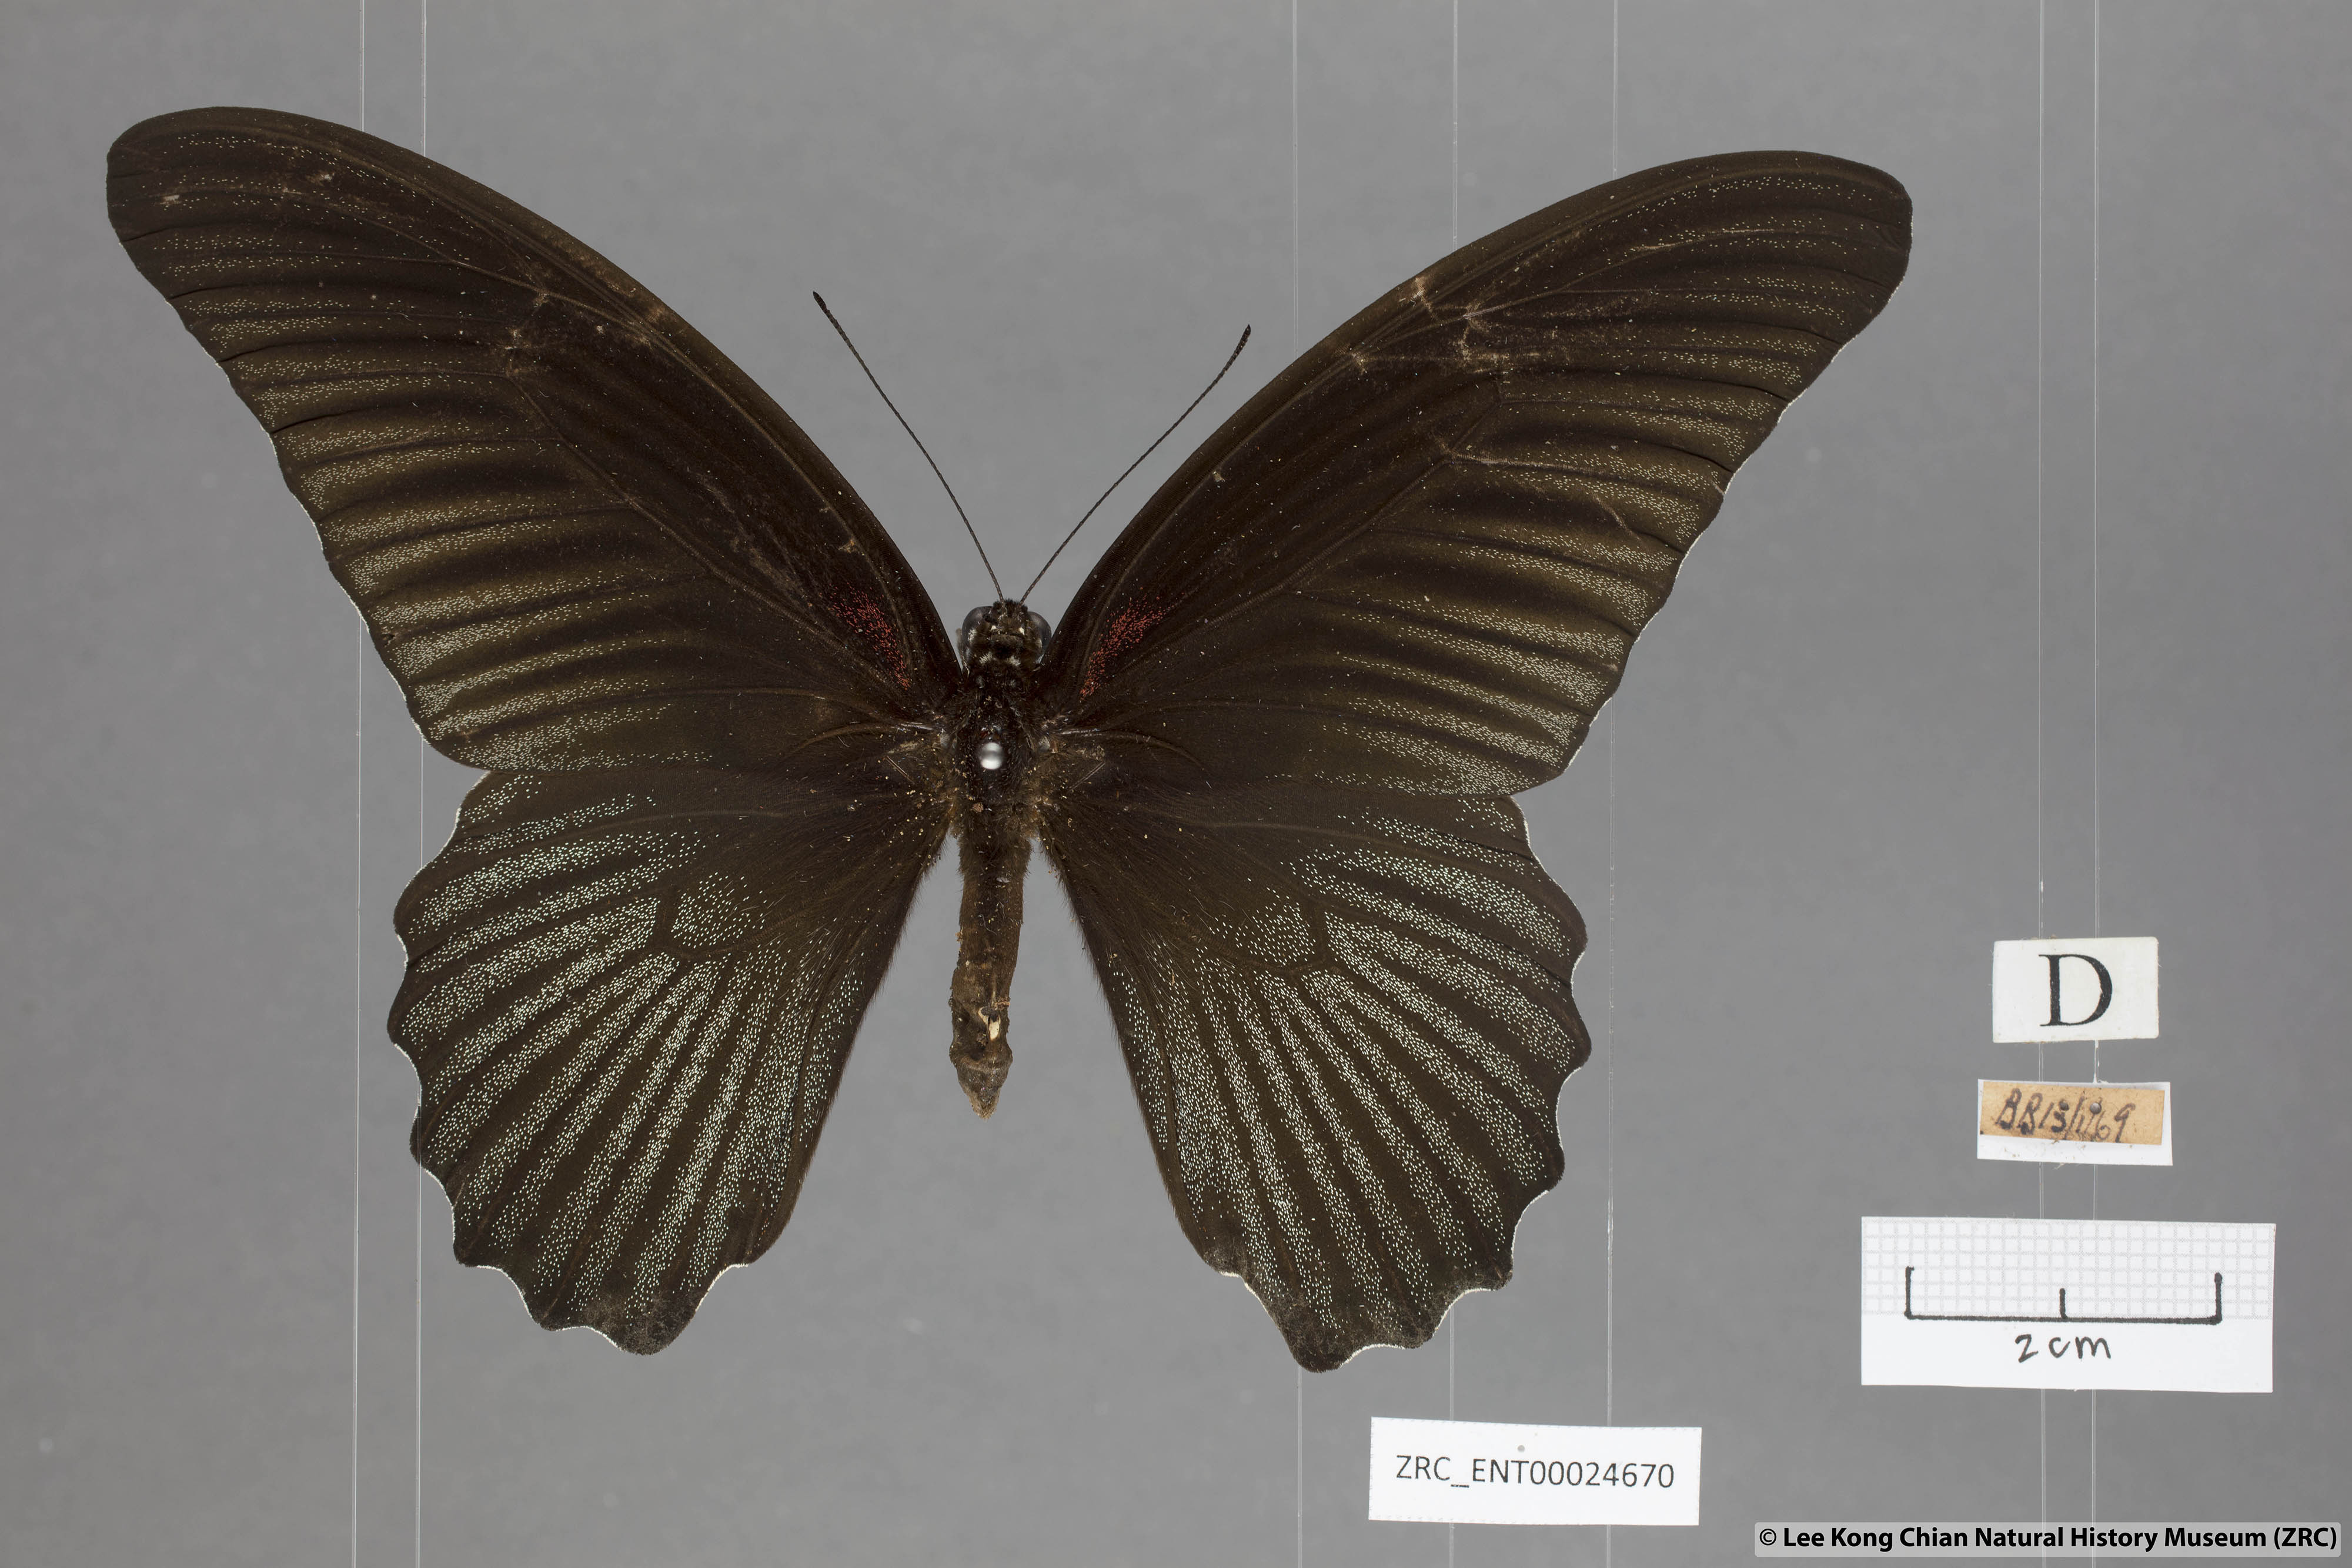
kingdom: Animalia
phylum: Arthropoda
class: Insecta
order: Lepidoptera
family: Papilionidae
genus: Papilio
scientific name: Papilio memnon
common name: Great mormon
